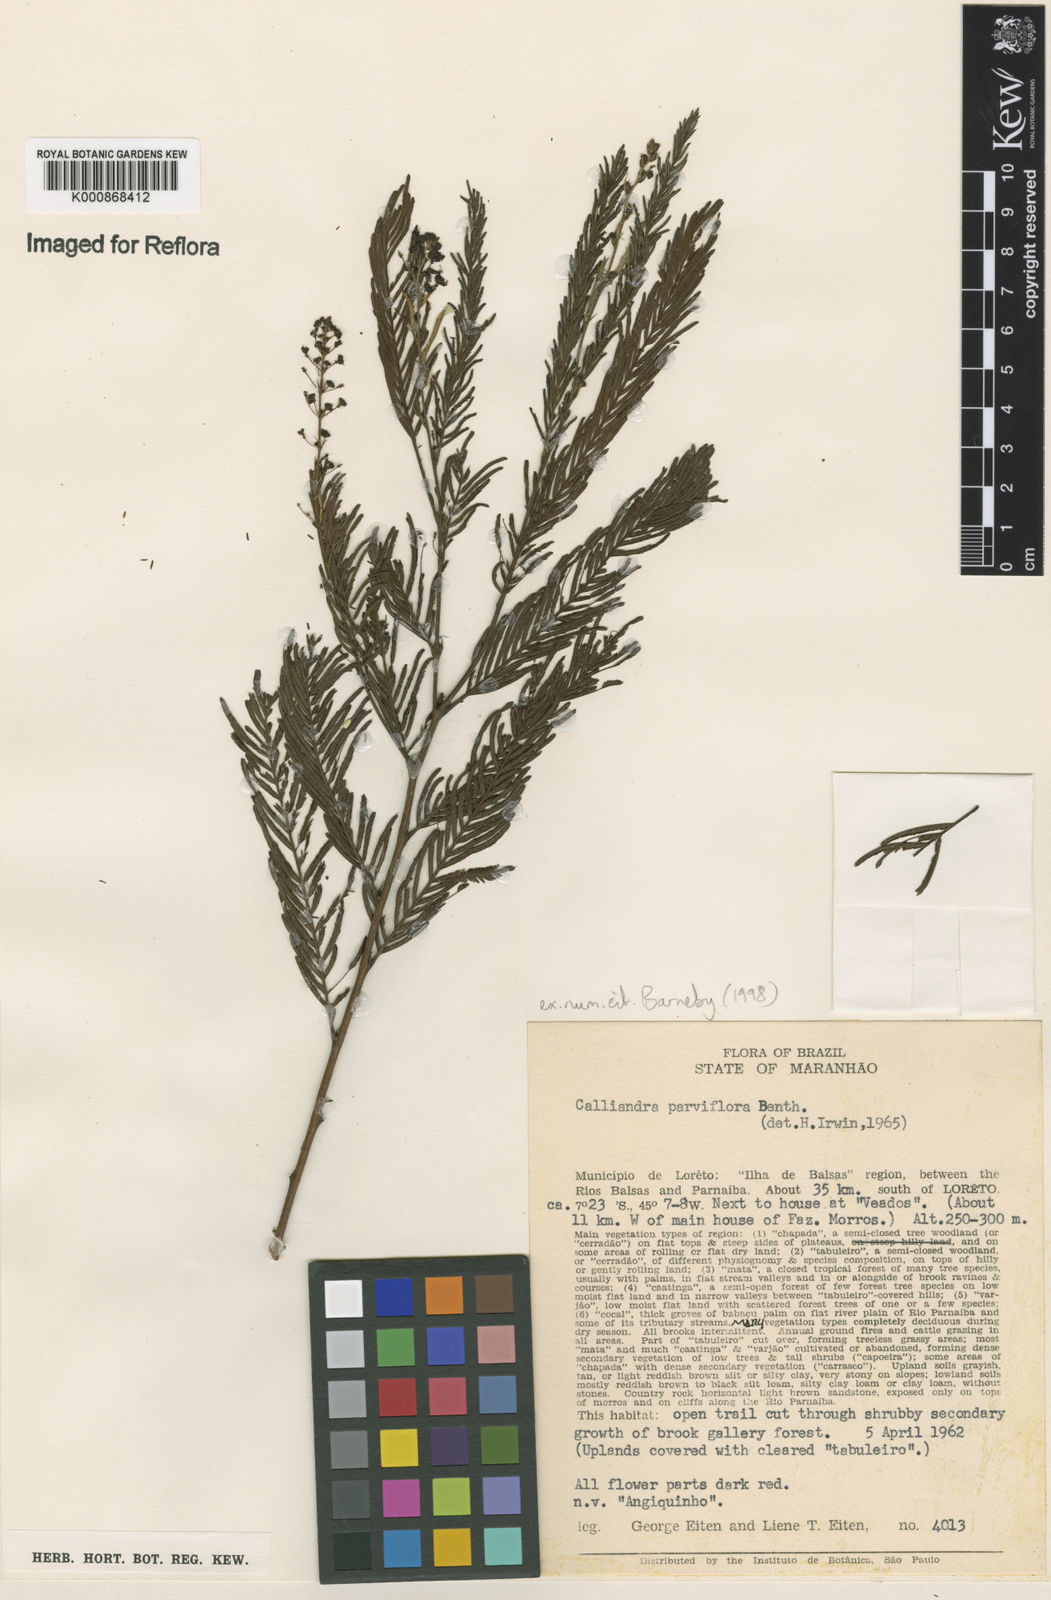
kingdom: Plantae
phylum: Tracheophyta
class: Magnoliopsida
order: Fabales
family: Fabaceae
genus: Calliandra
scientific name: Calliandra parviflora
